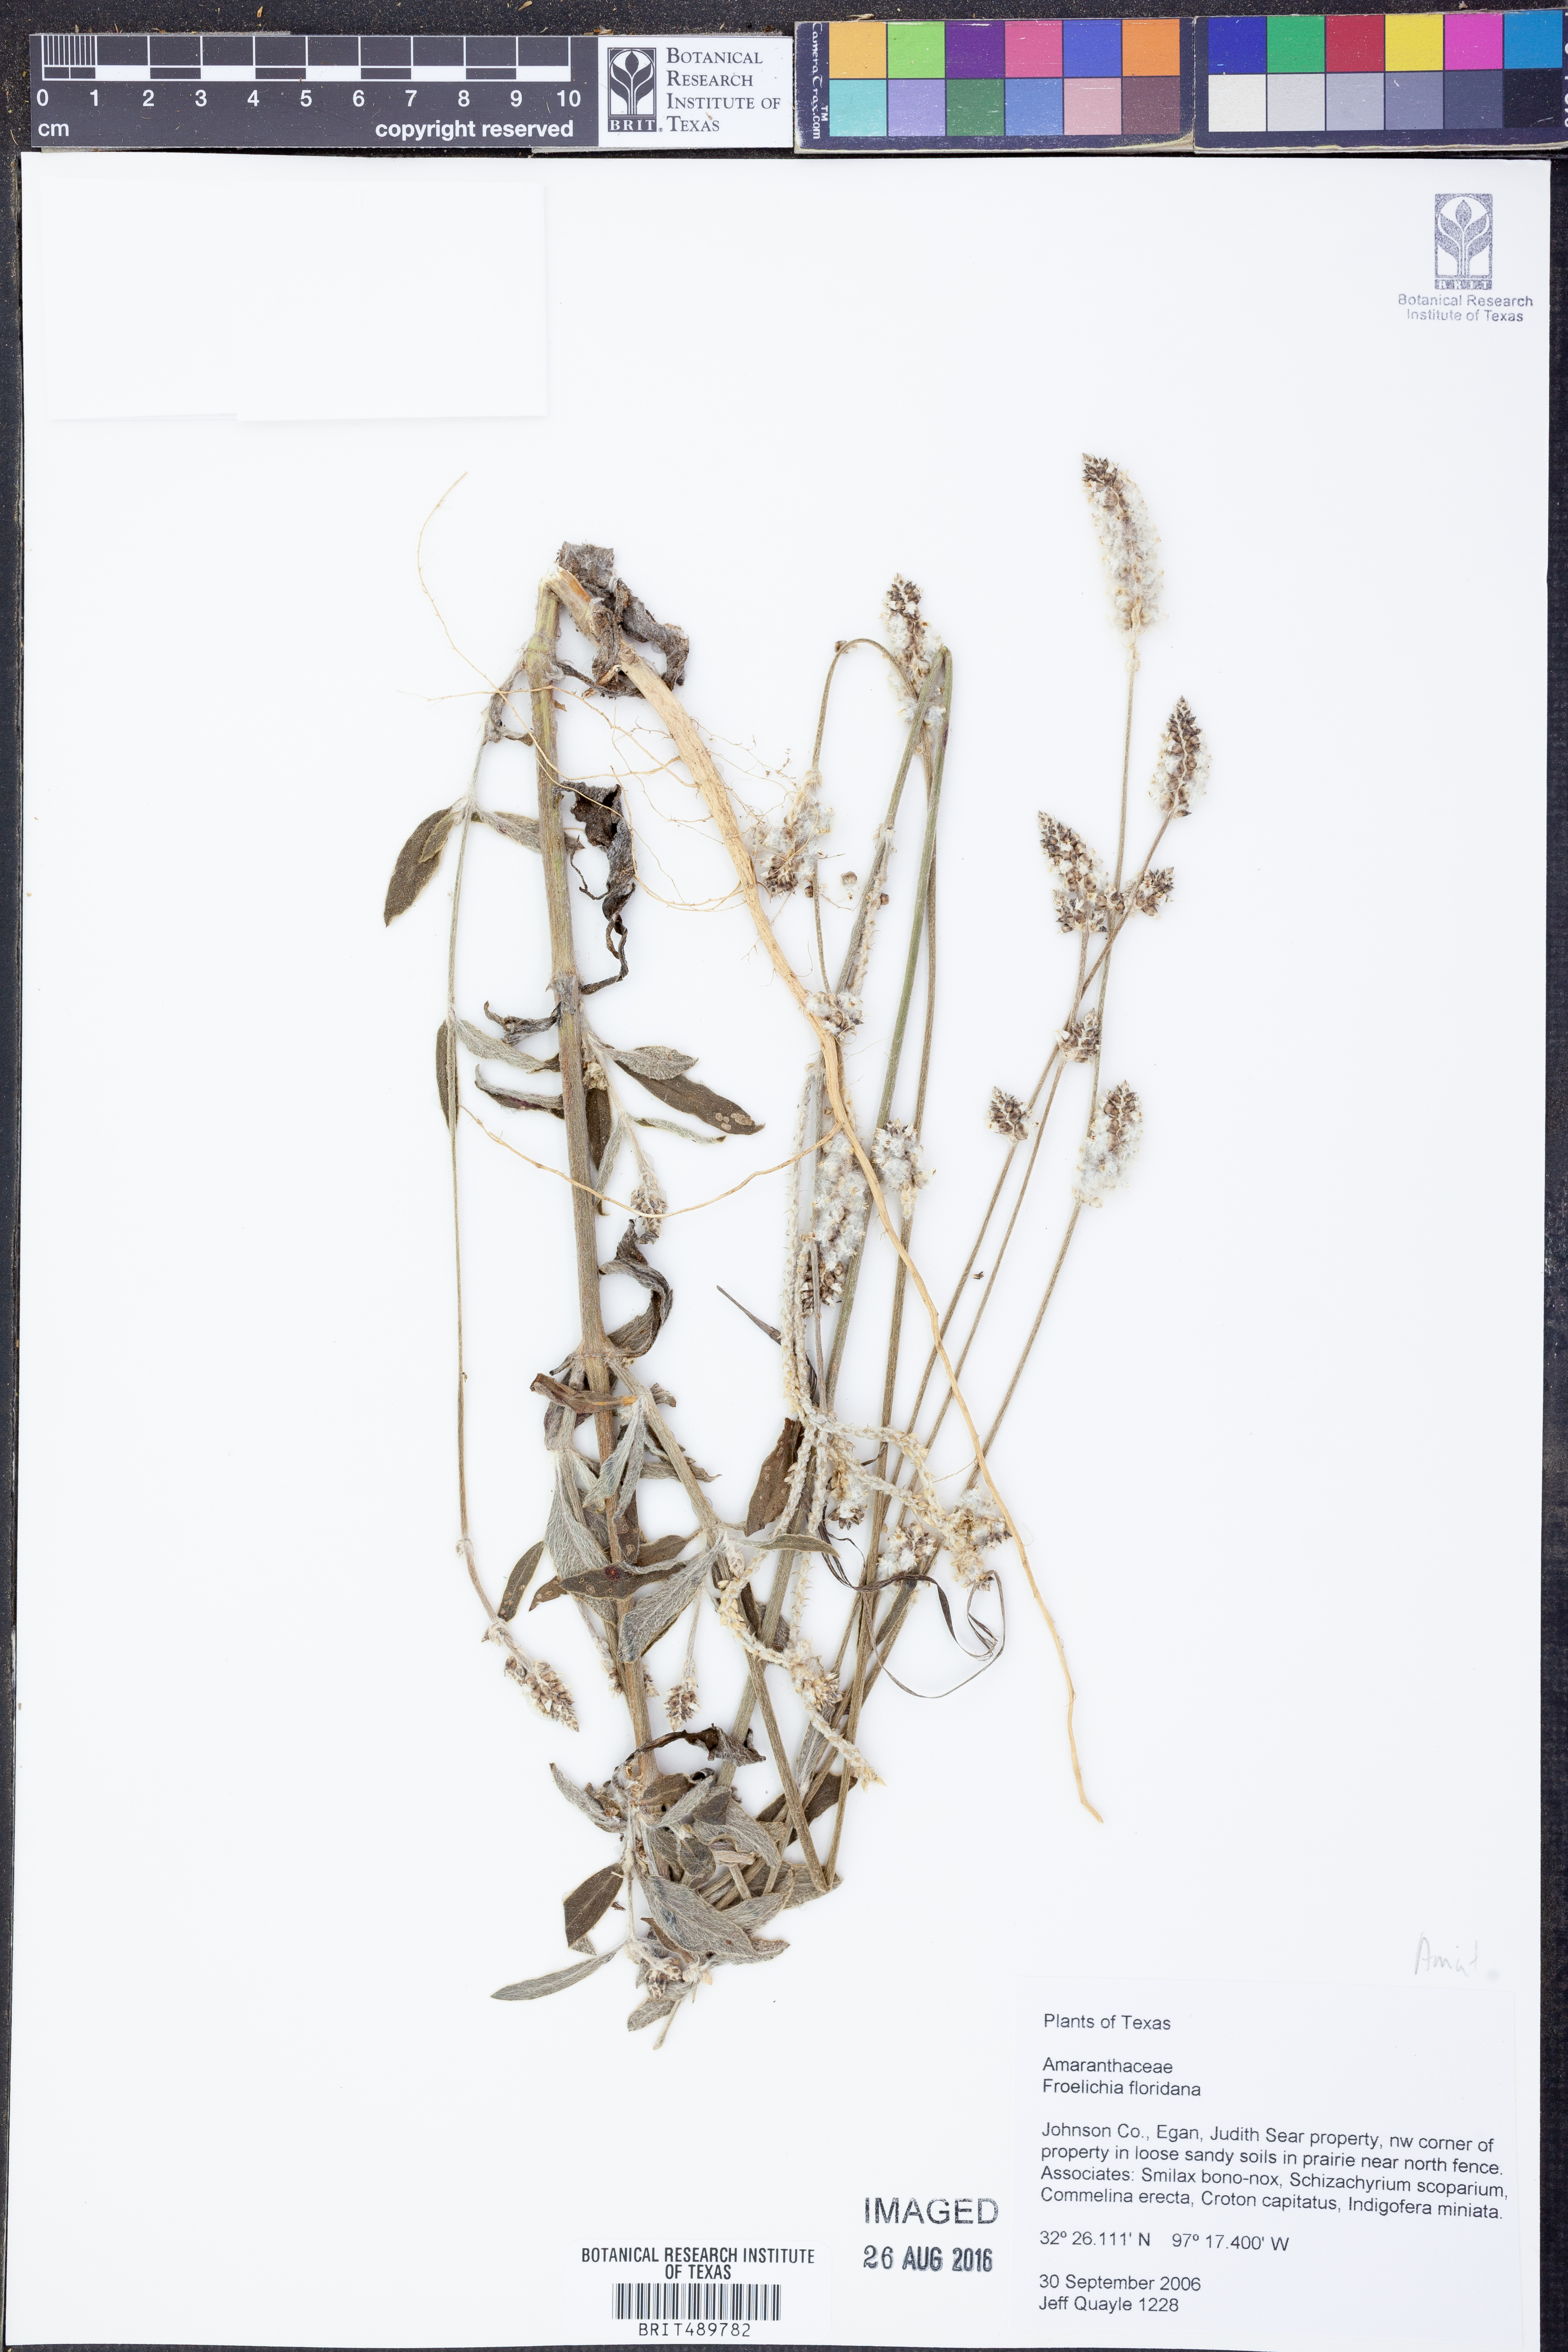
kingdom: Plantae
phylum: Tracheophyta
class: Magnoliopsida
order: Caryophyllales
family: Amaranthaceae
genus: Froelichia
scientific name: Froelichia floridana
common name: Florida snake-cotton
